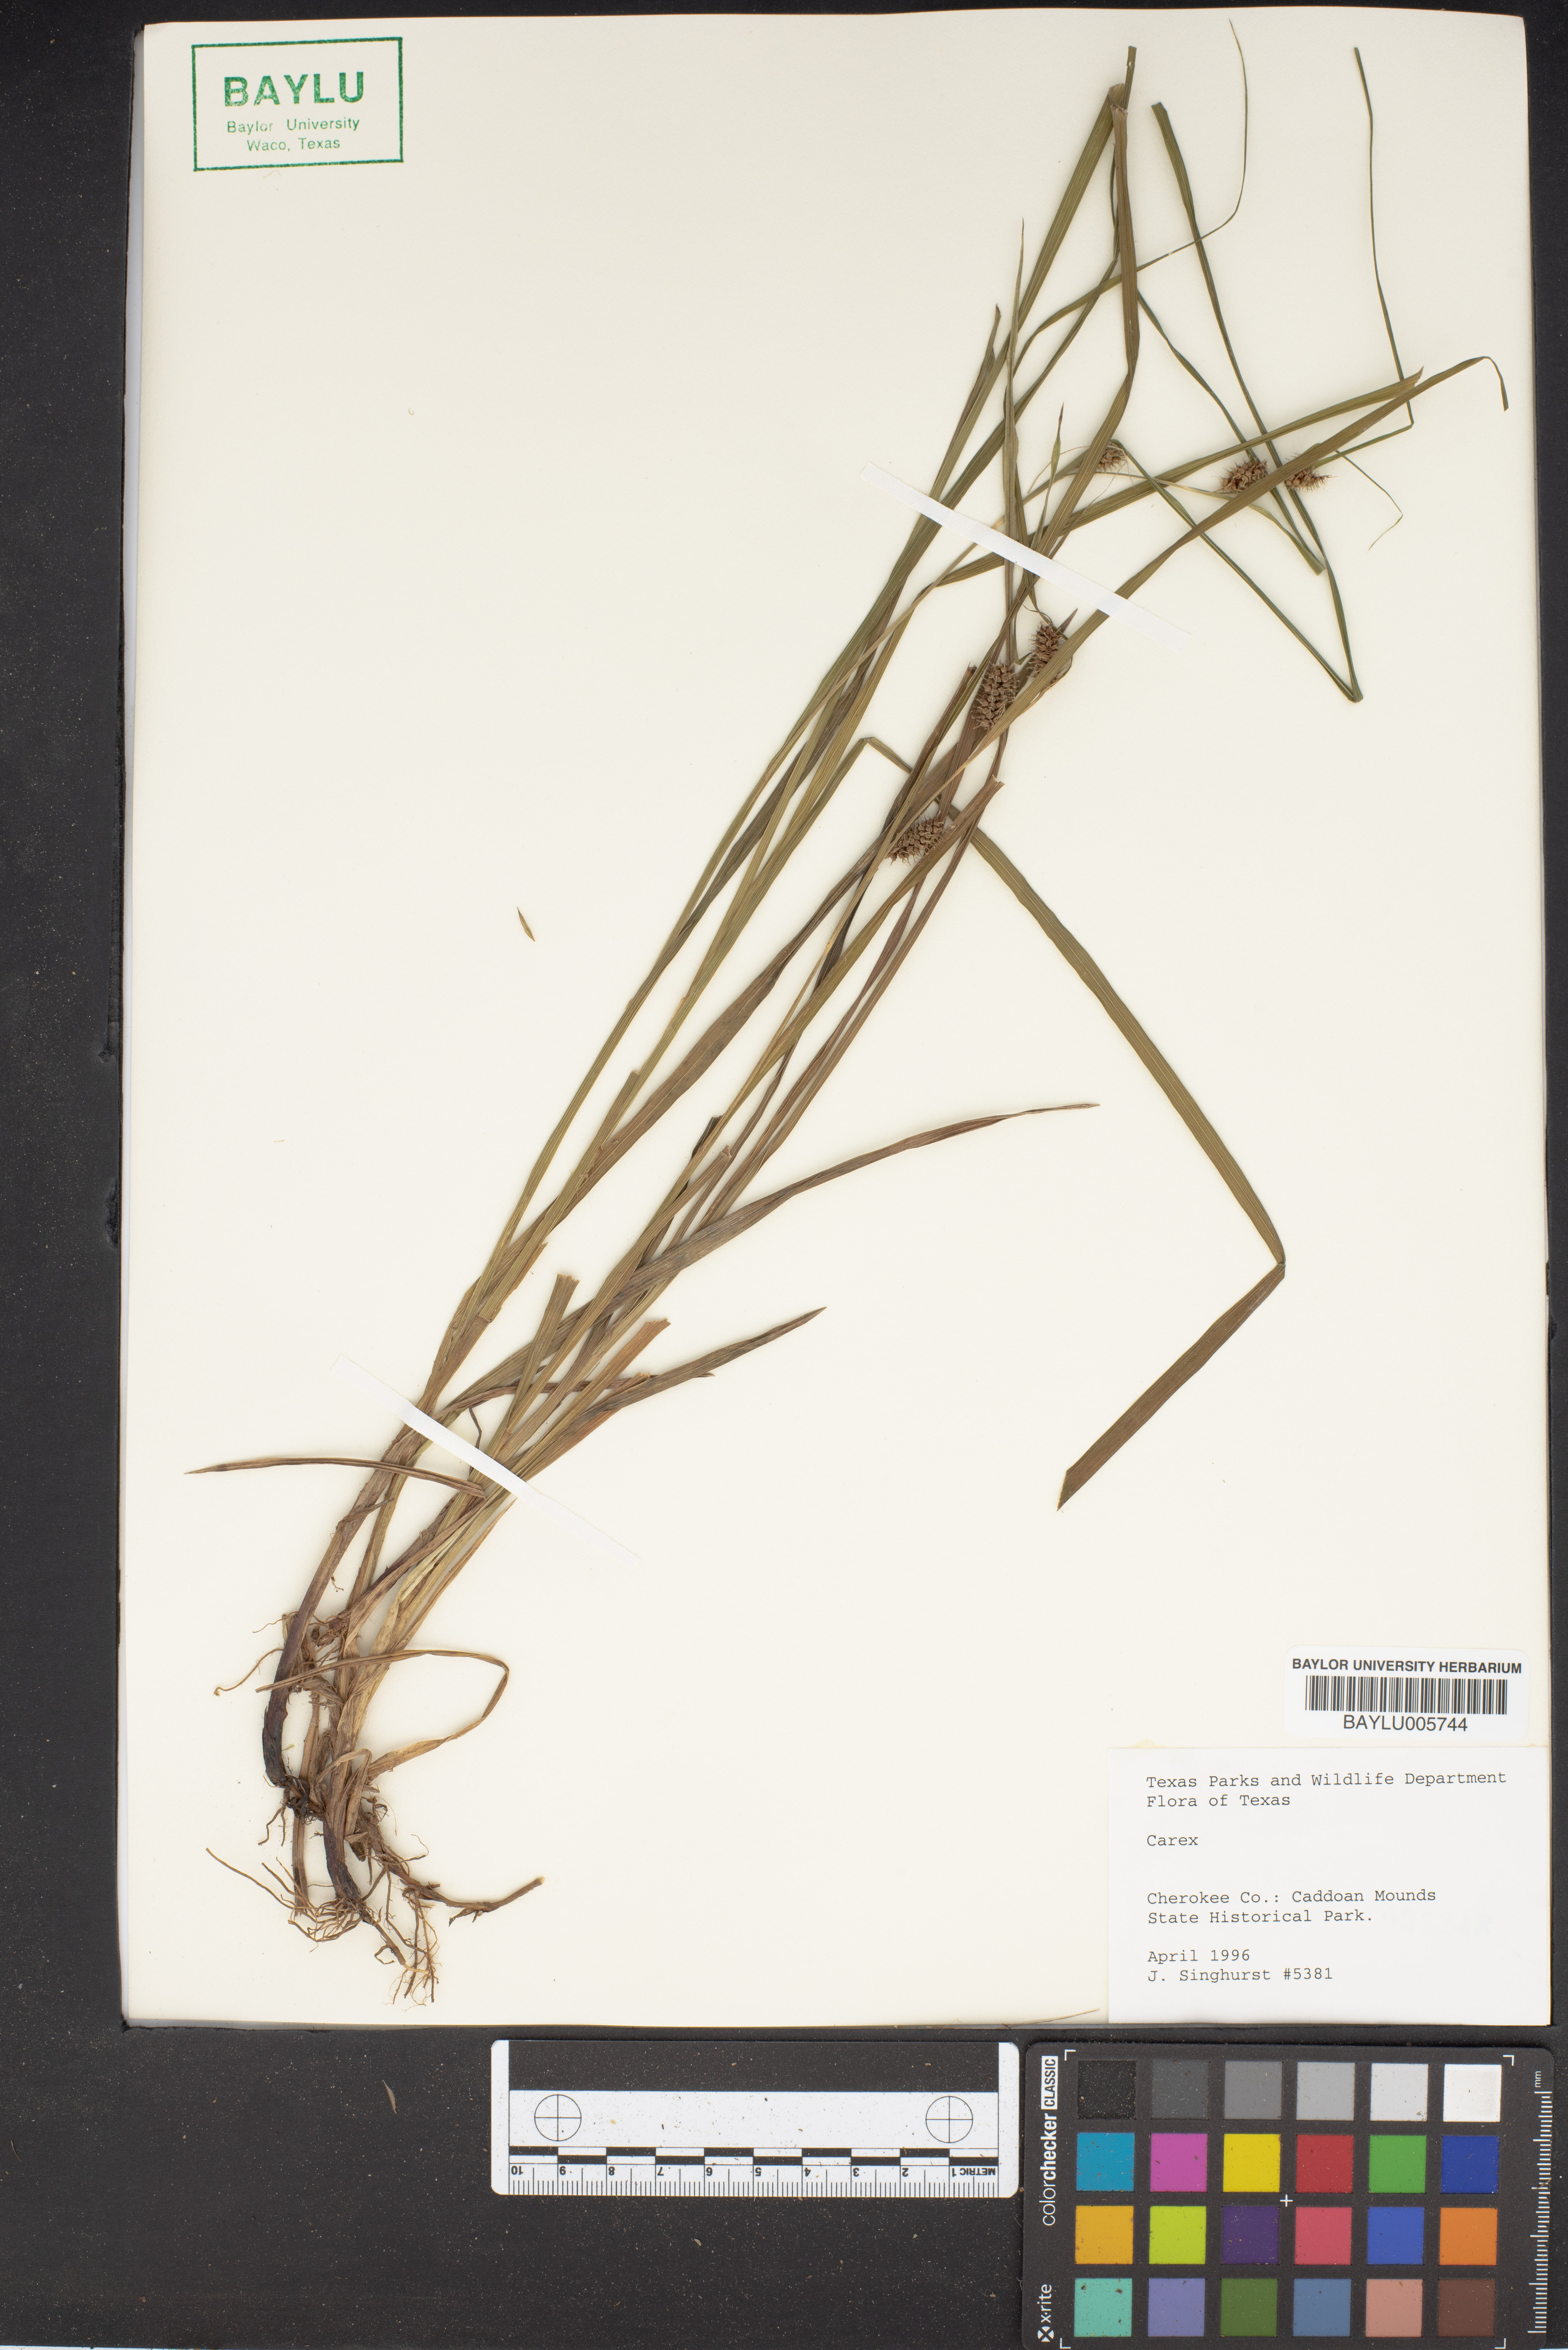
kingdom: Plantae
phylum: Tracheophyta
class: Liliopsida
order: Poales
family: Cyperaceae
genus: Carex
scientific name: Carex
